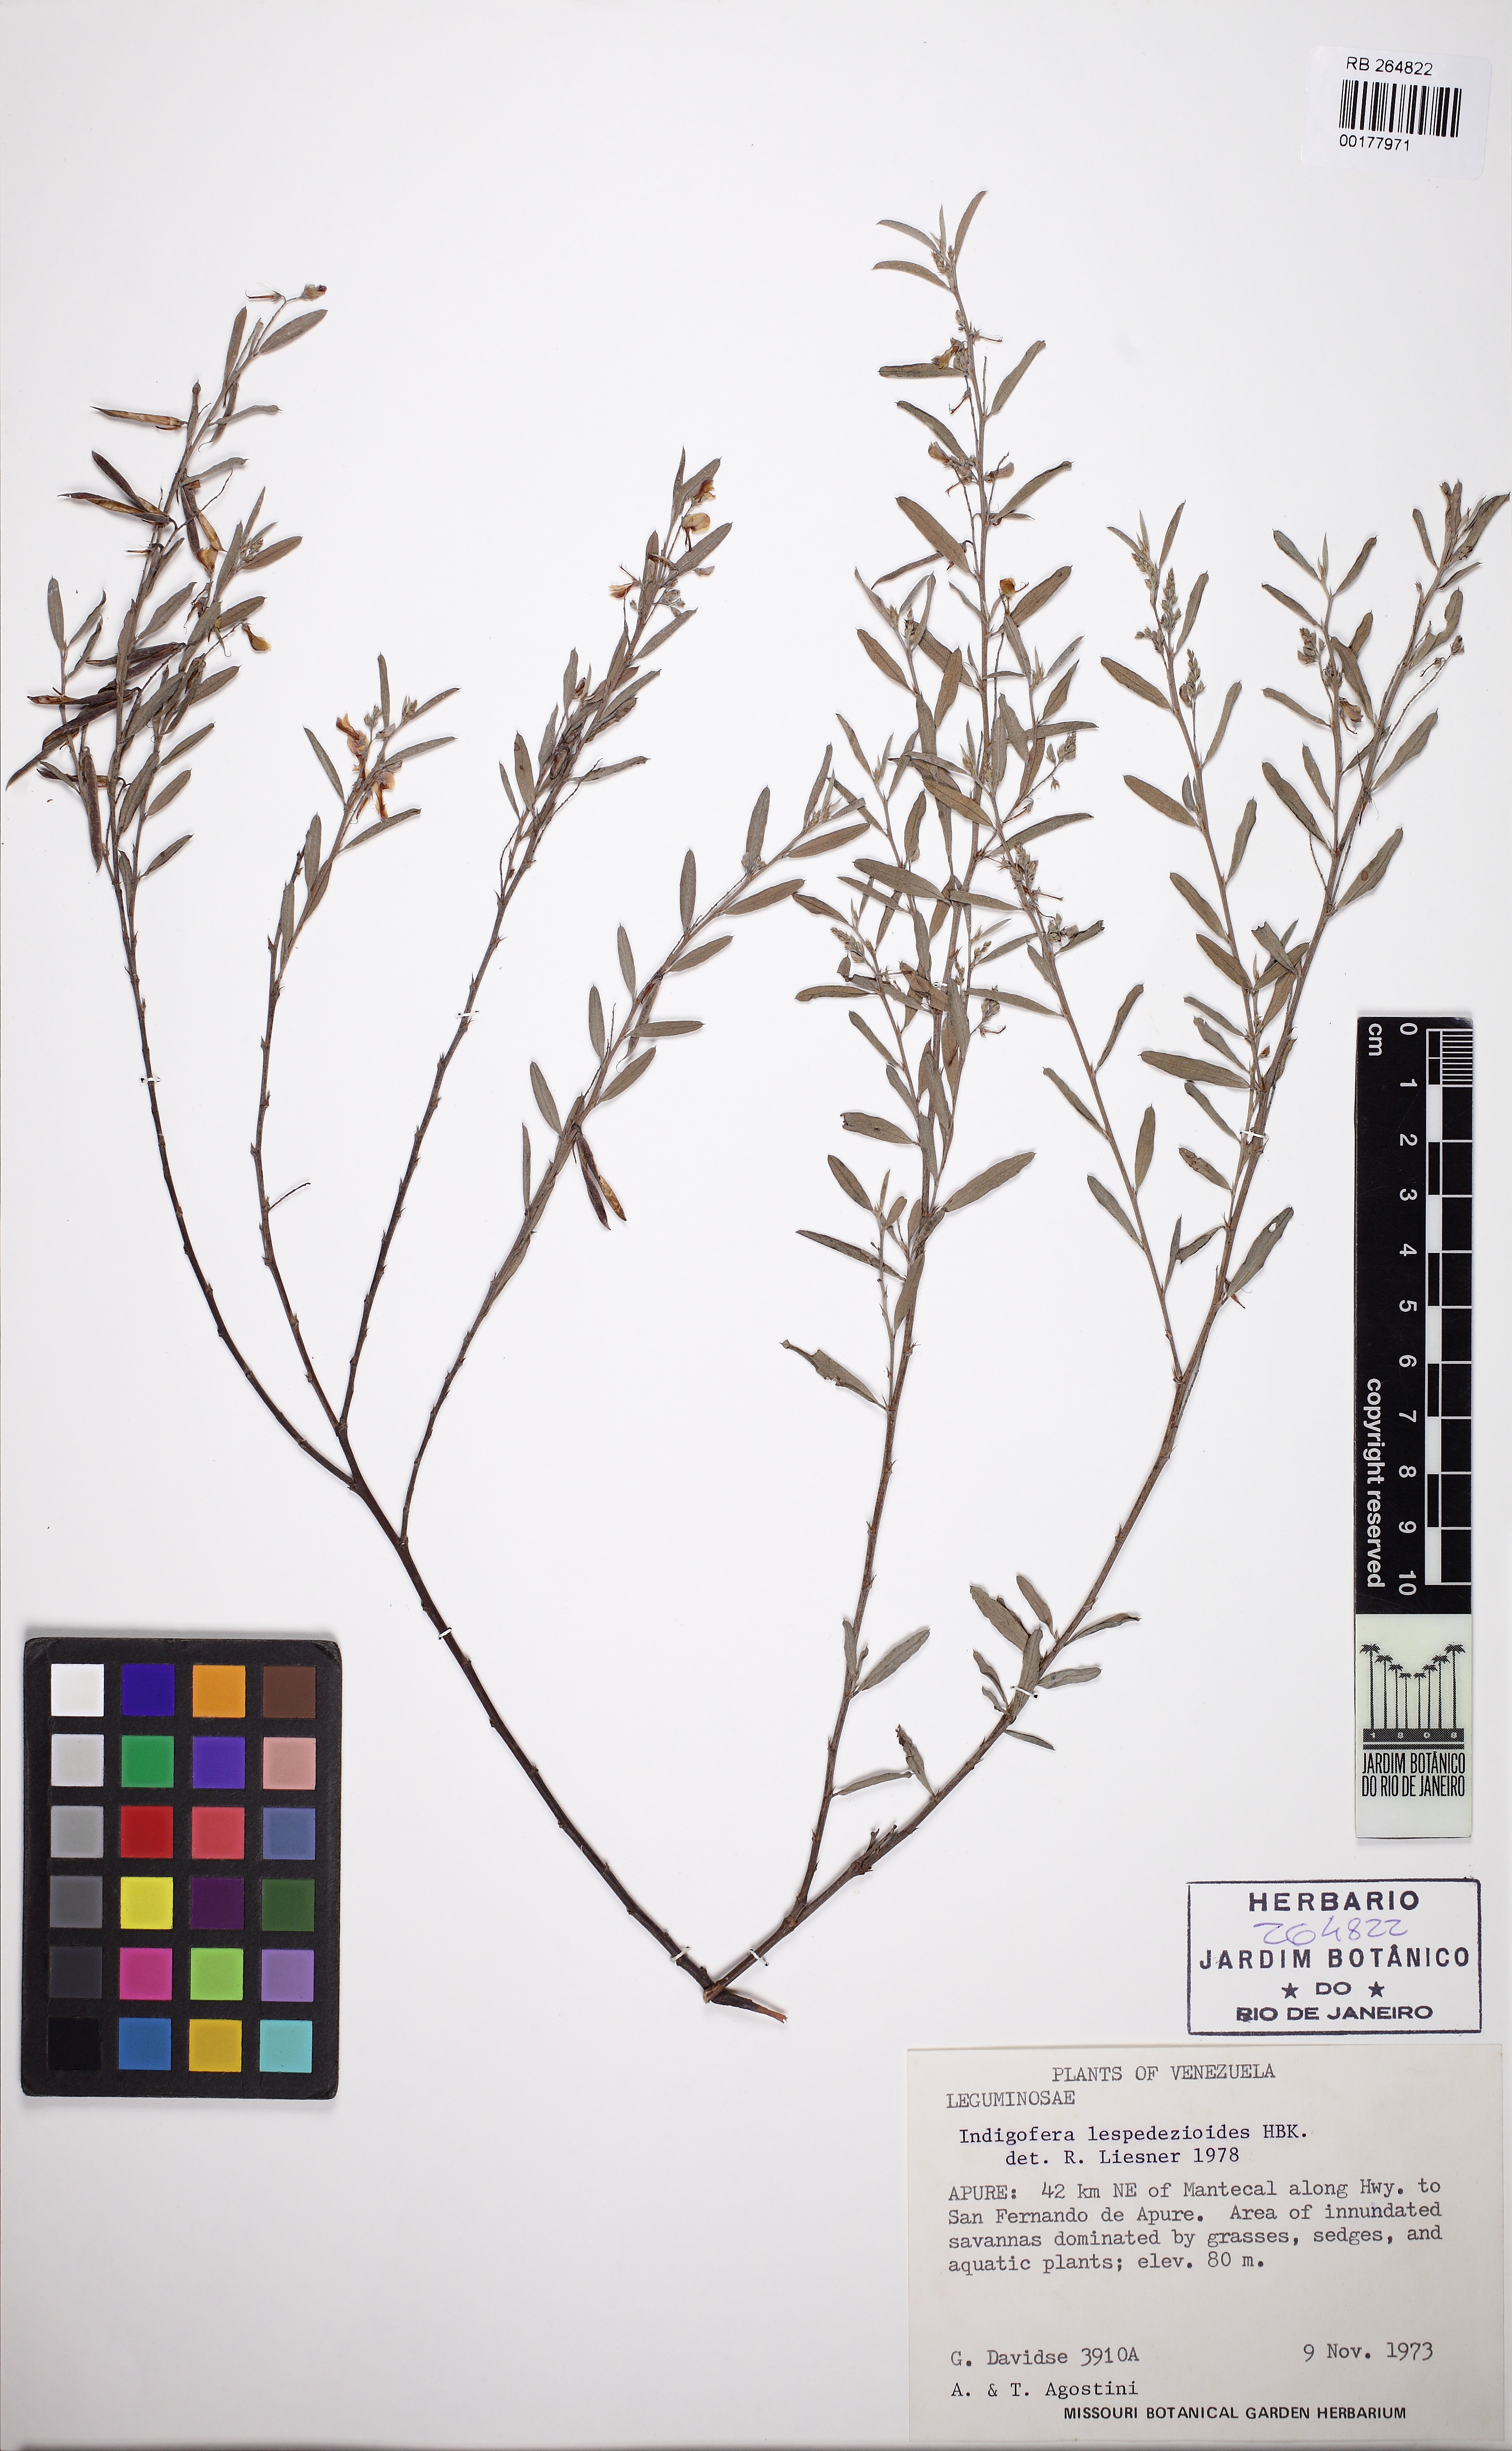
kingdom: Plantae
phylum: Tracheophyta
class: Magnoliopsida
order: Fabales
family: Fabaceae
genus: Indigofera
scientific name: Indigofera lespedezioides
